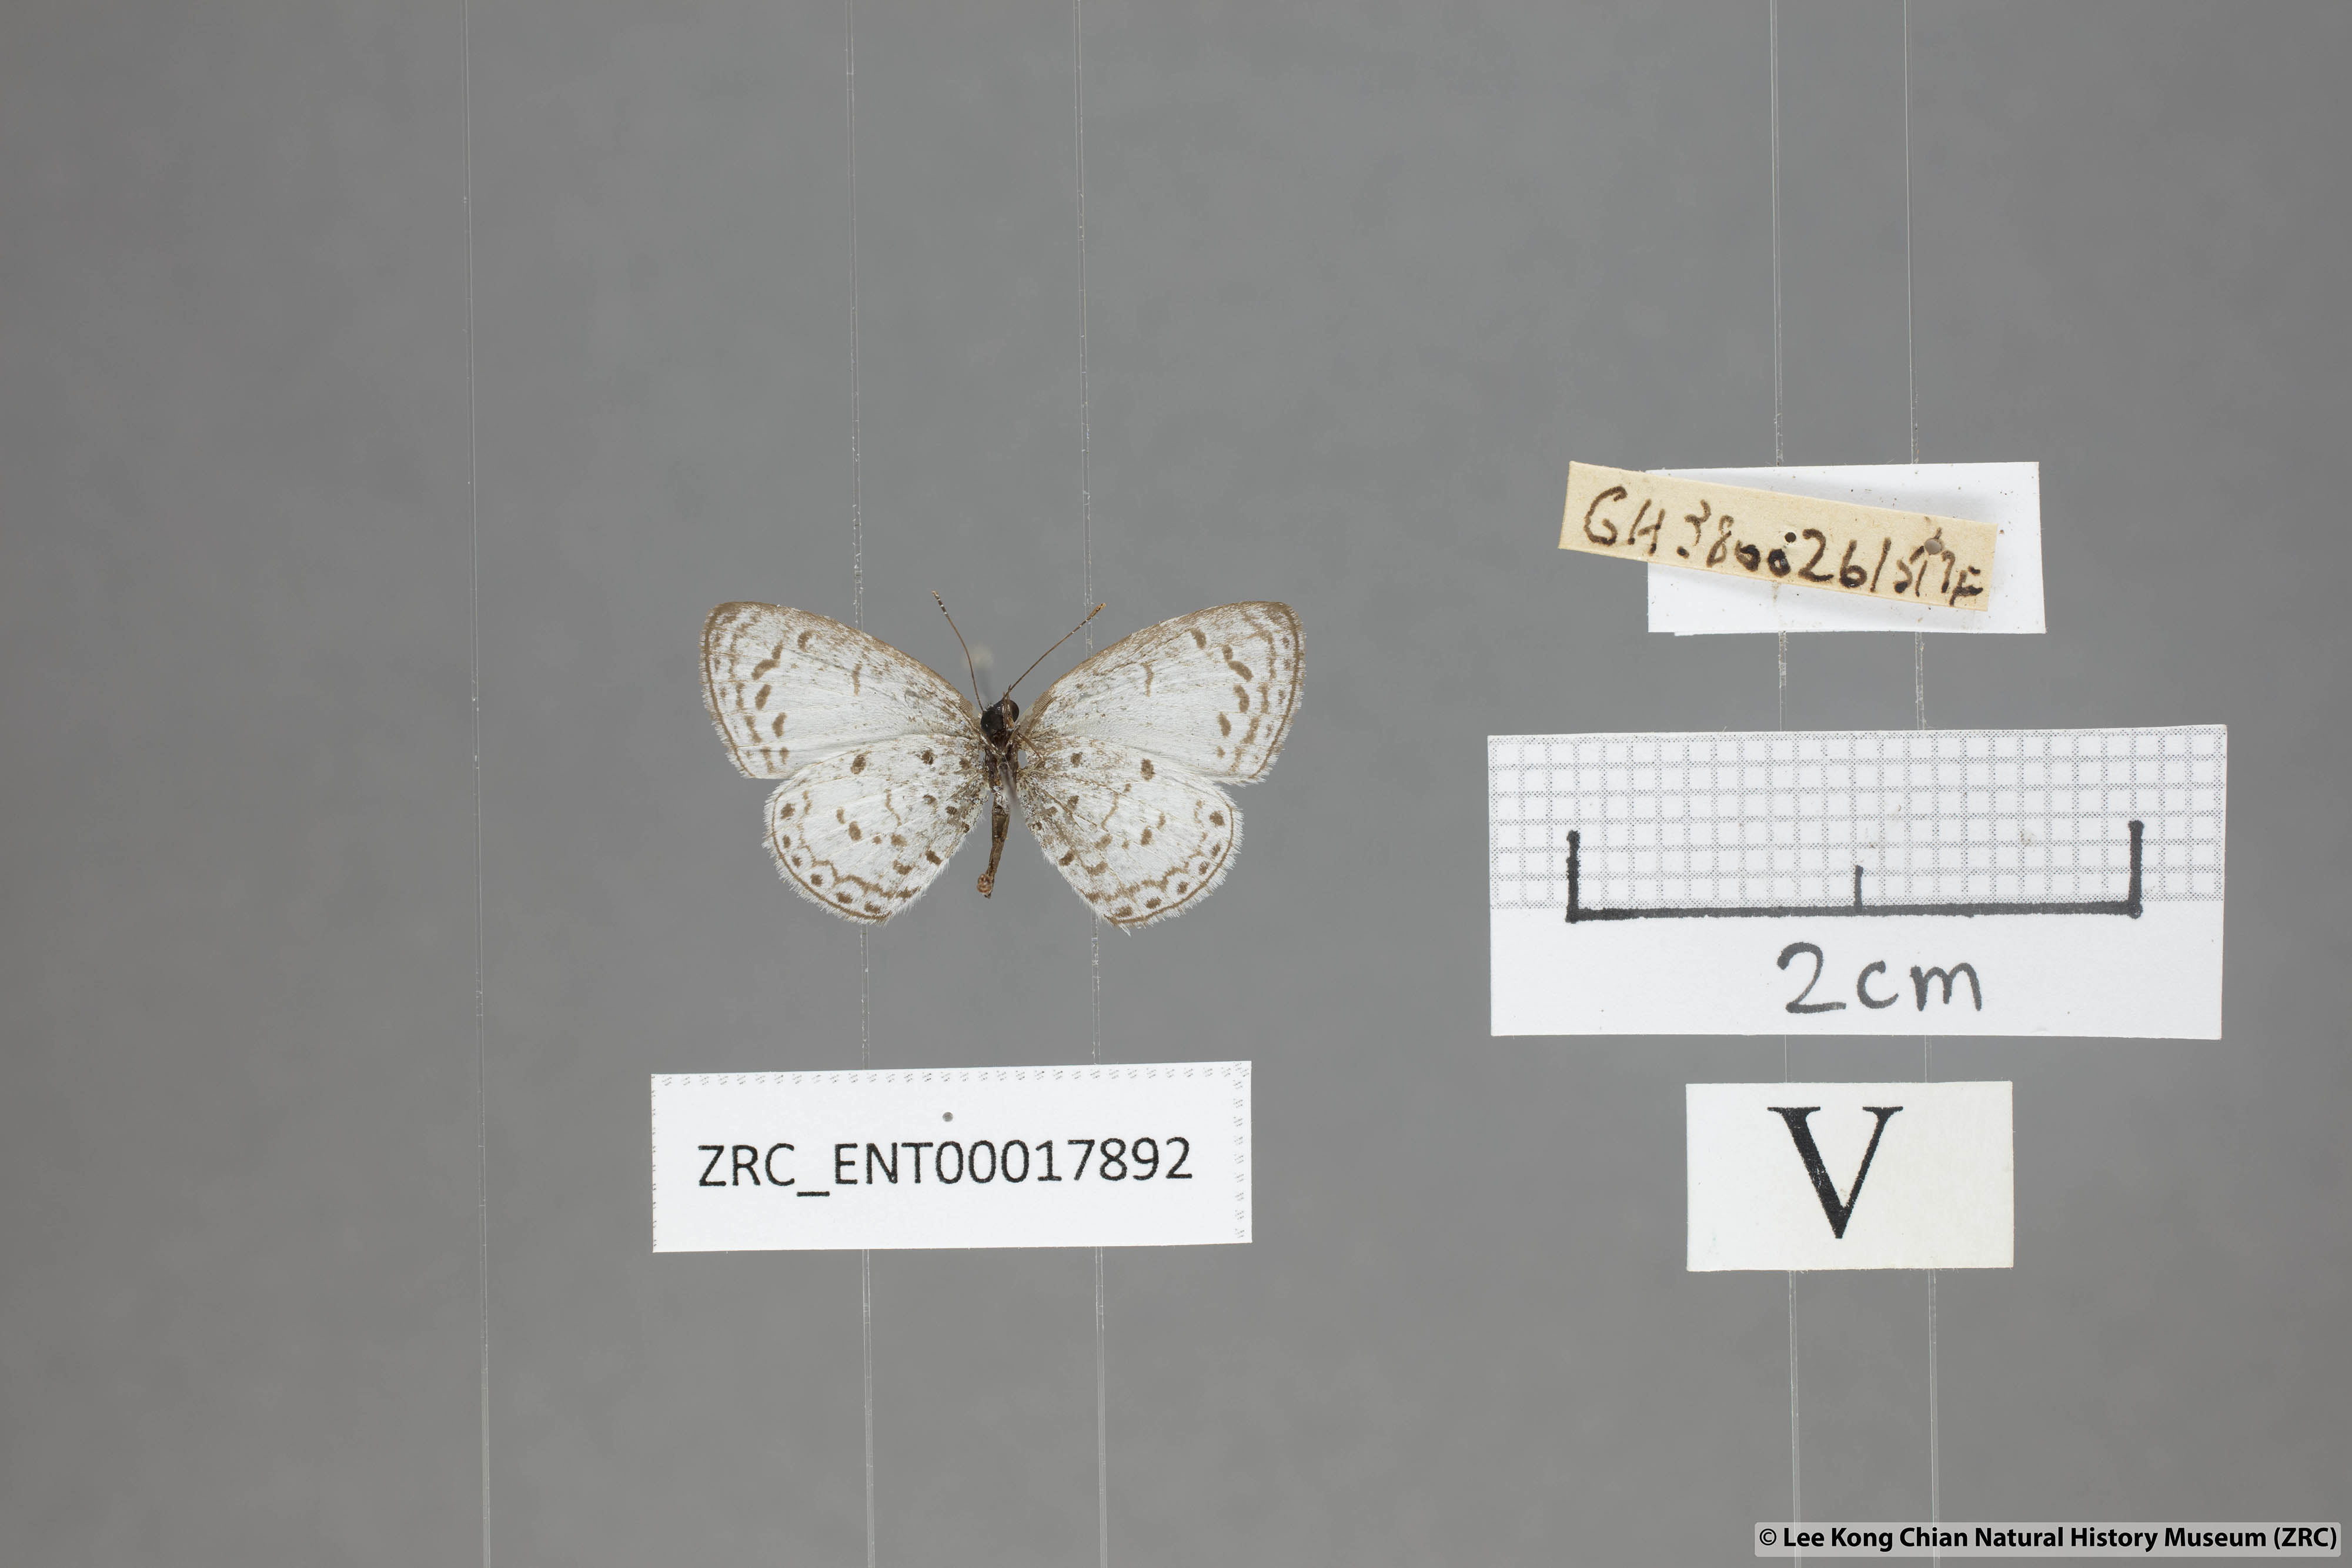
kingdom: Animalia
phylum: Arthropoda
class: Insecta
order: Lepidoptera
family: Lycaenidae
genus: Oreolyce
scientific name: Oreolyce
